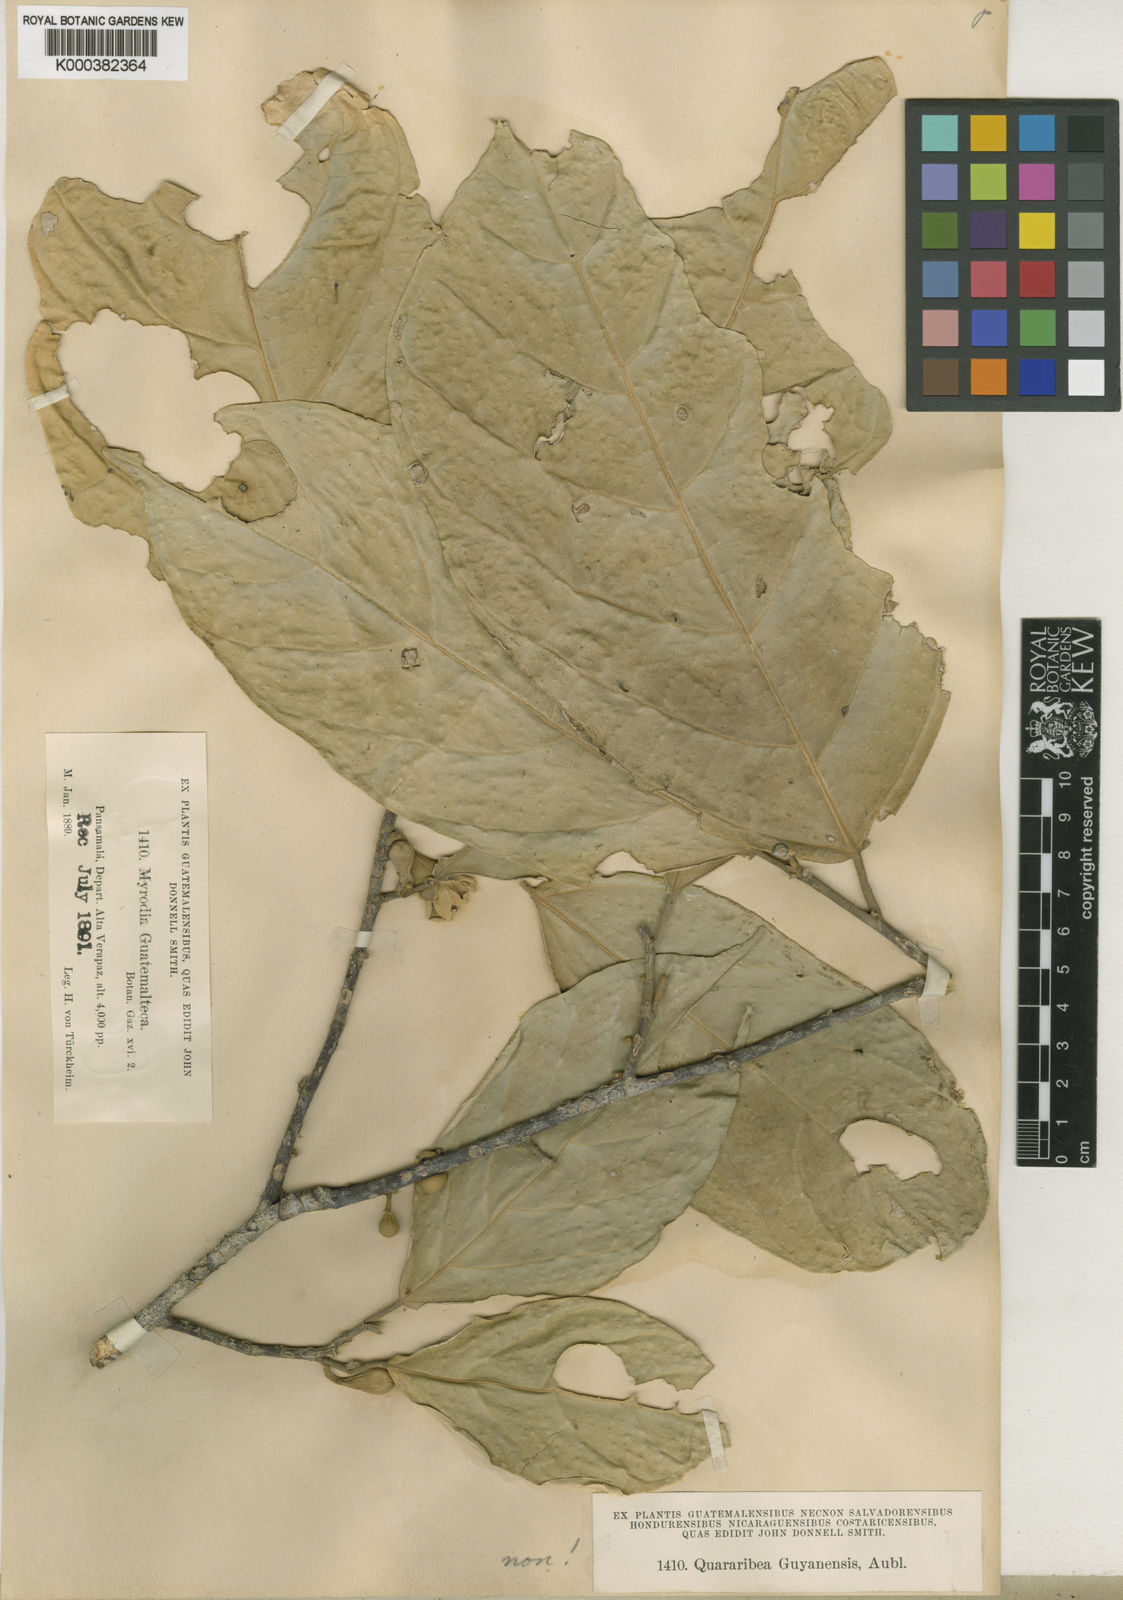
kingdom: Plantae
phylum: Tracheophyta
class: Magnoliopsida
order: Malvales
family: Malvaceae
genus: Quararibea
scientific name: Quararibea guatemalteca
